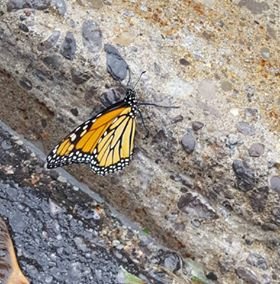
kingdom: Animalia
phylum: Arthropoda
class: Insecta
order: Lepidoptera
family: Nymphalidae
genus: Danaus
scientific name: Danaus plexippus
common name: Monarch
